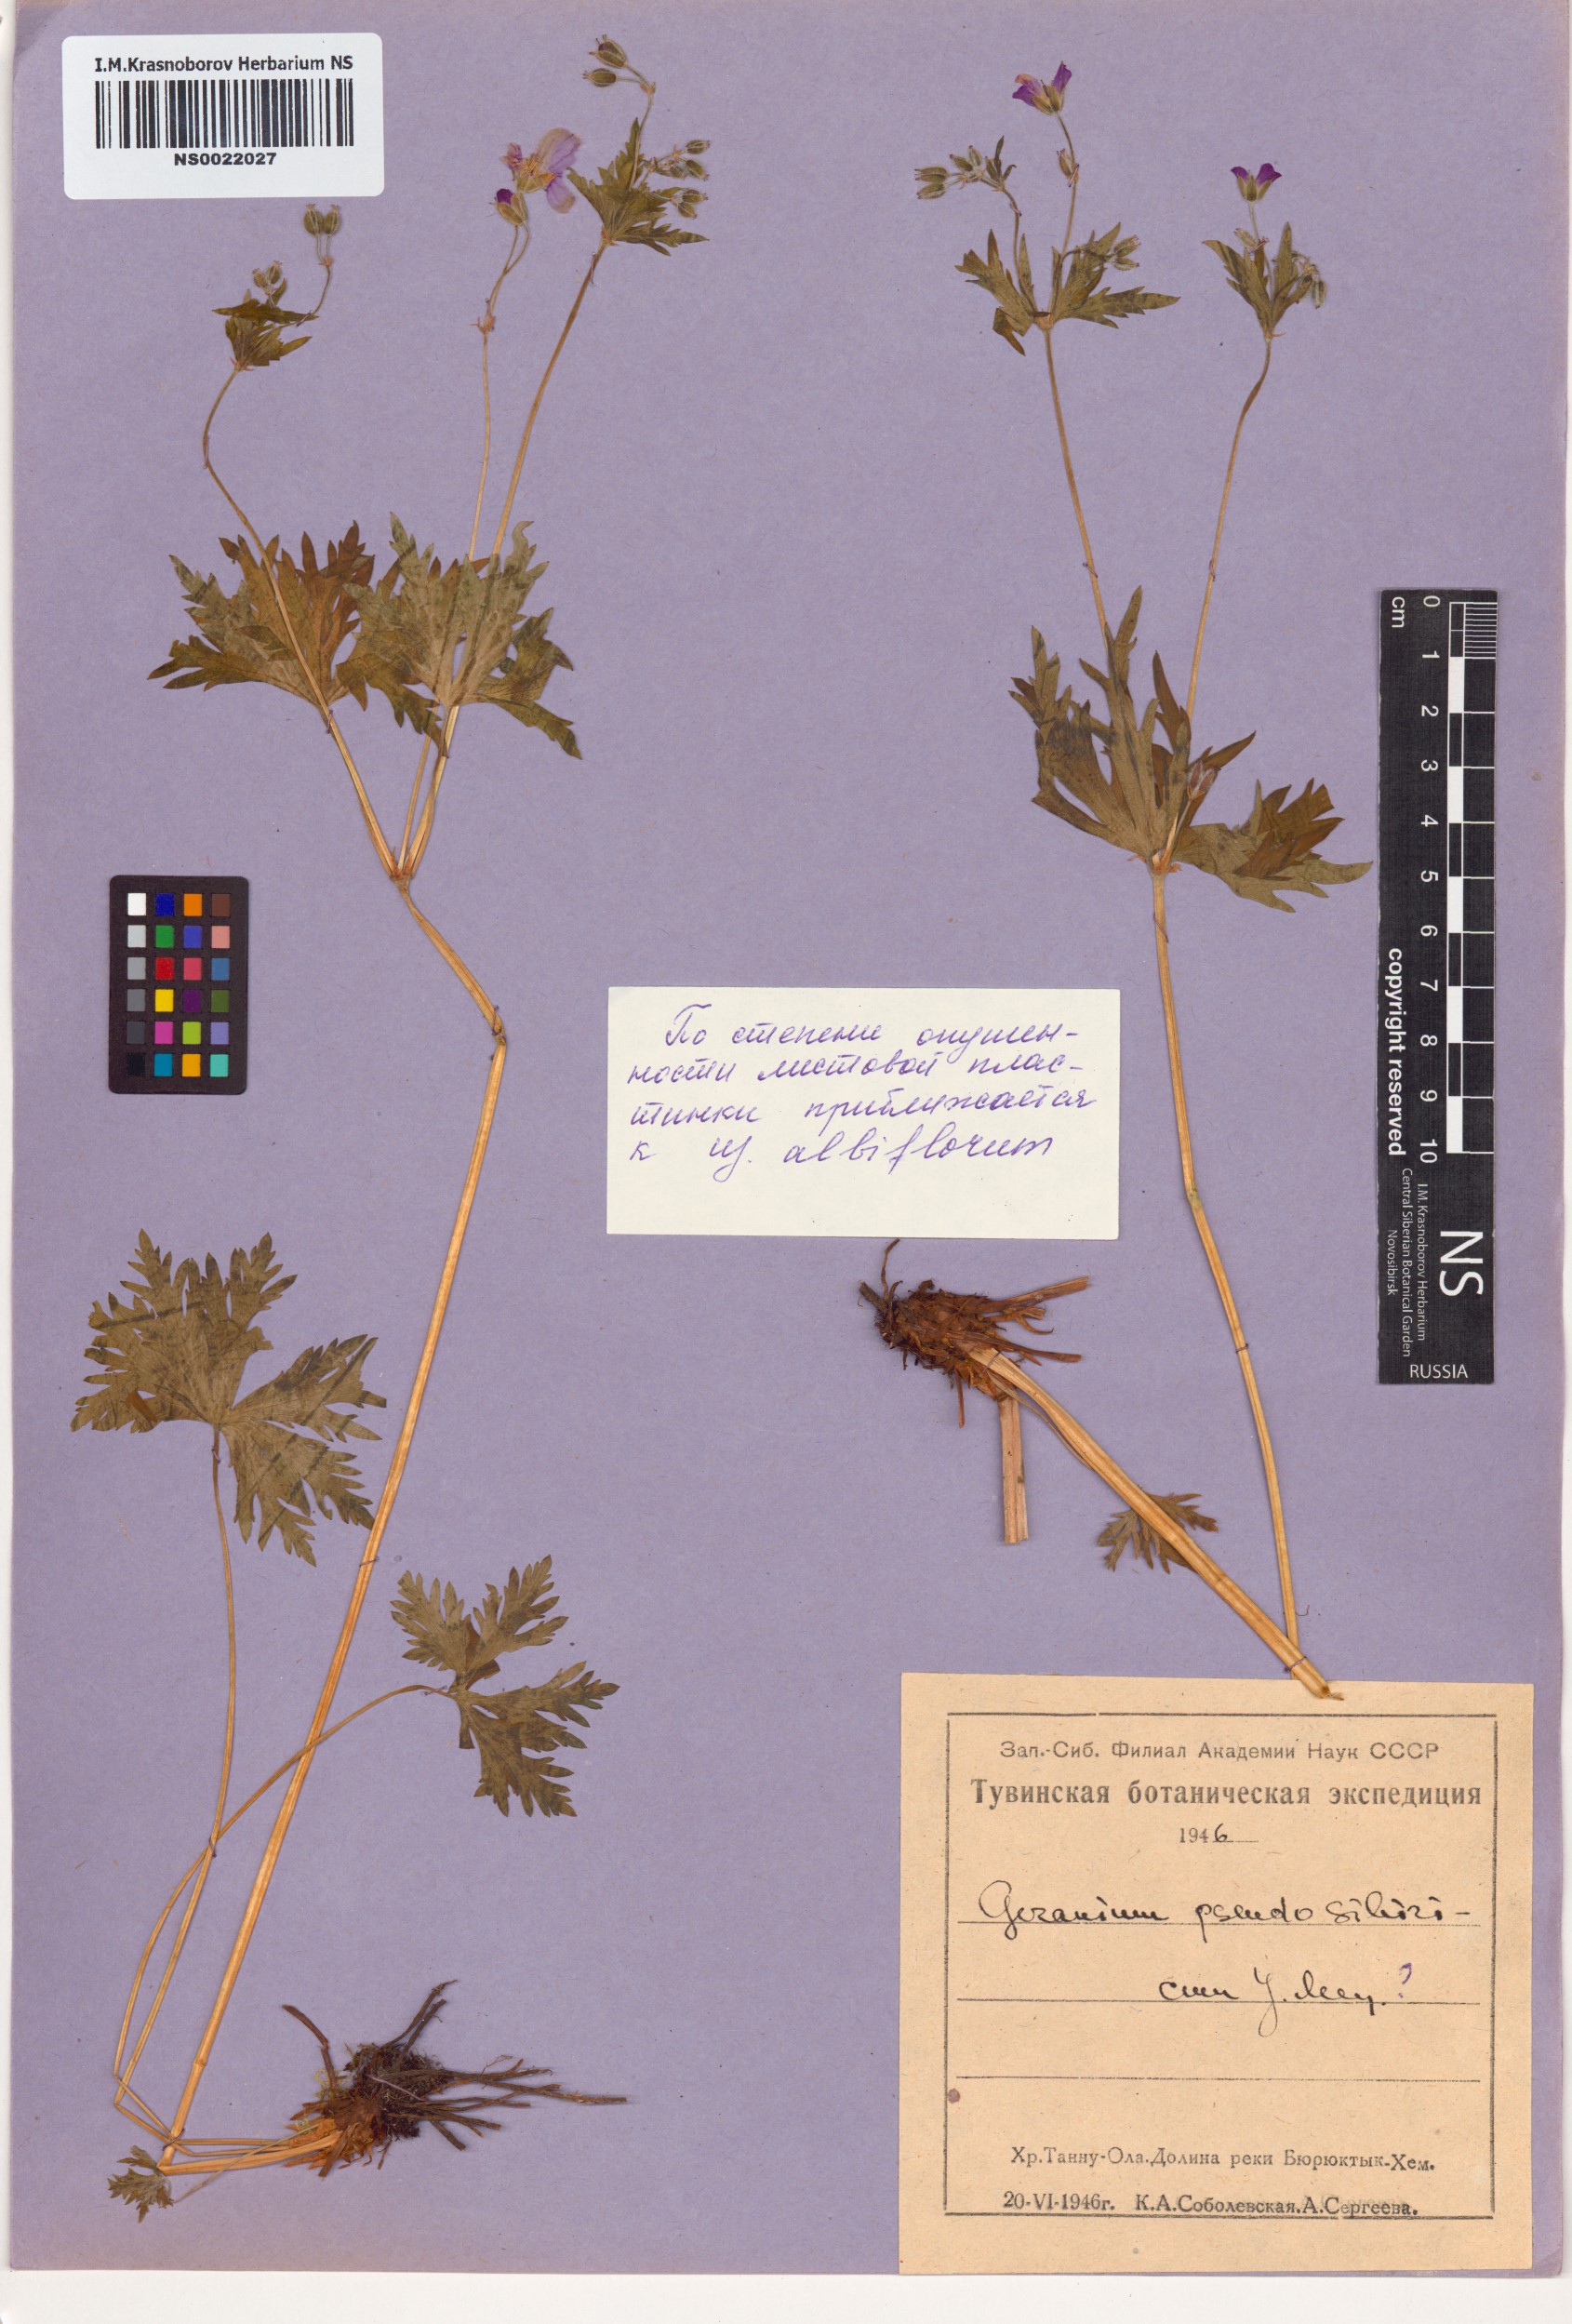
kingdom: Plantae
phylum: Tracheophyta
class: Magnoliopsida
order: Geraniales
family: Geraniaceae
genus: Geranium
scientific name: Geranium pseudosibiricum
